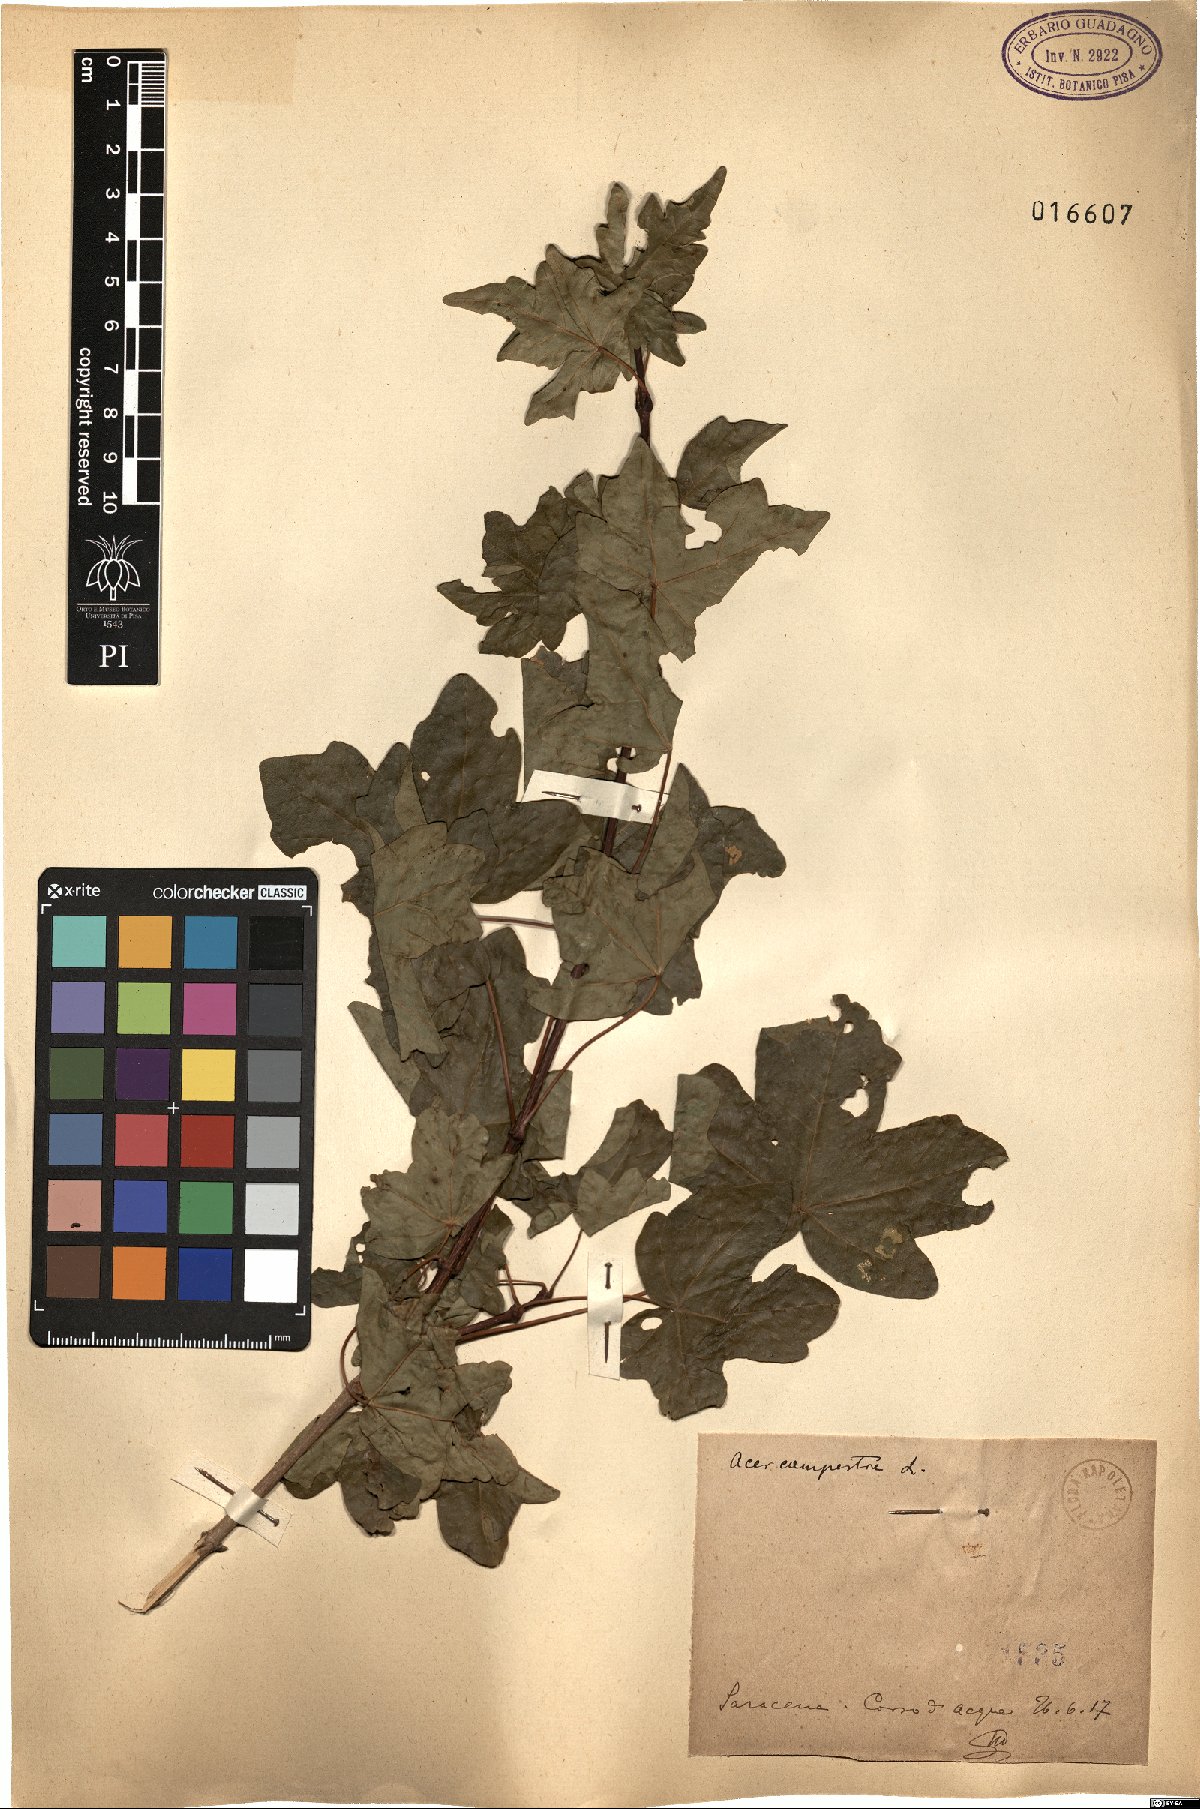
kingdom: Plantae
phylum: Tracheophyta
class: Magnoliopsida
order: Sapindales
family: Sapindaceae
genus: Acer
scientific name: Acer campestre
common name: Field maple
